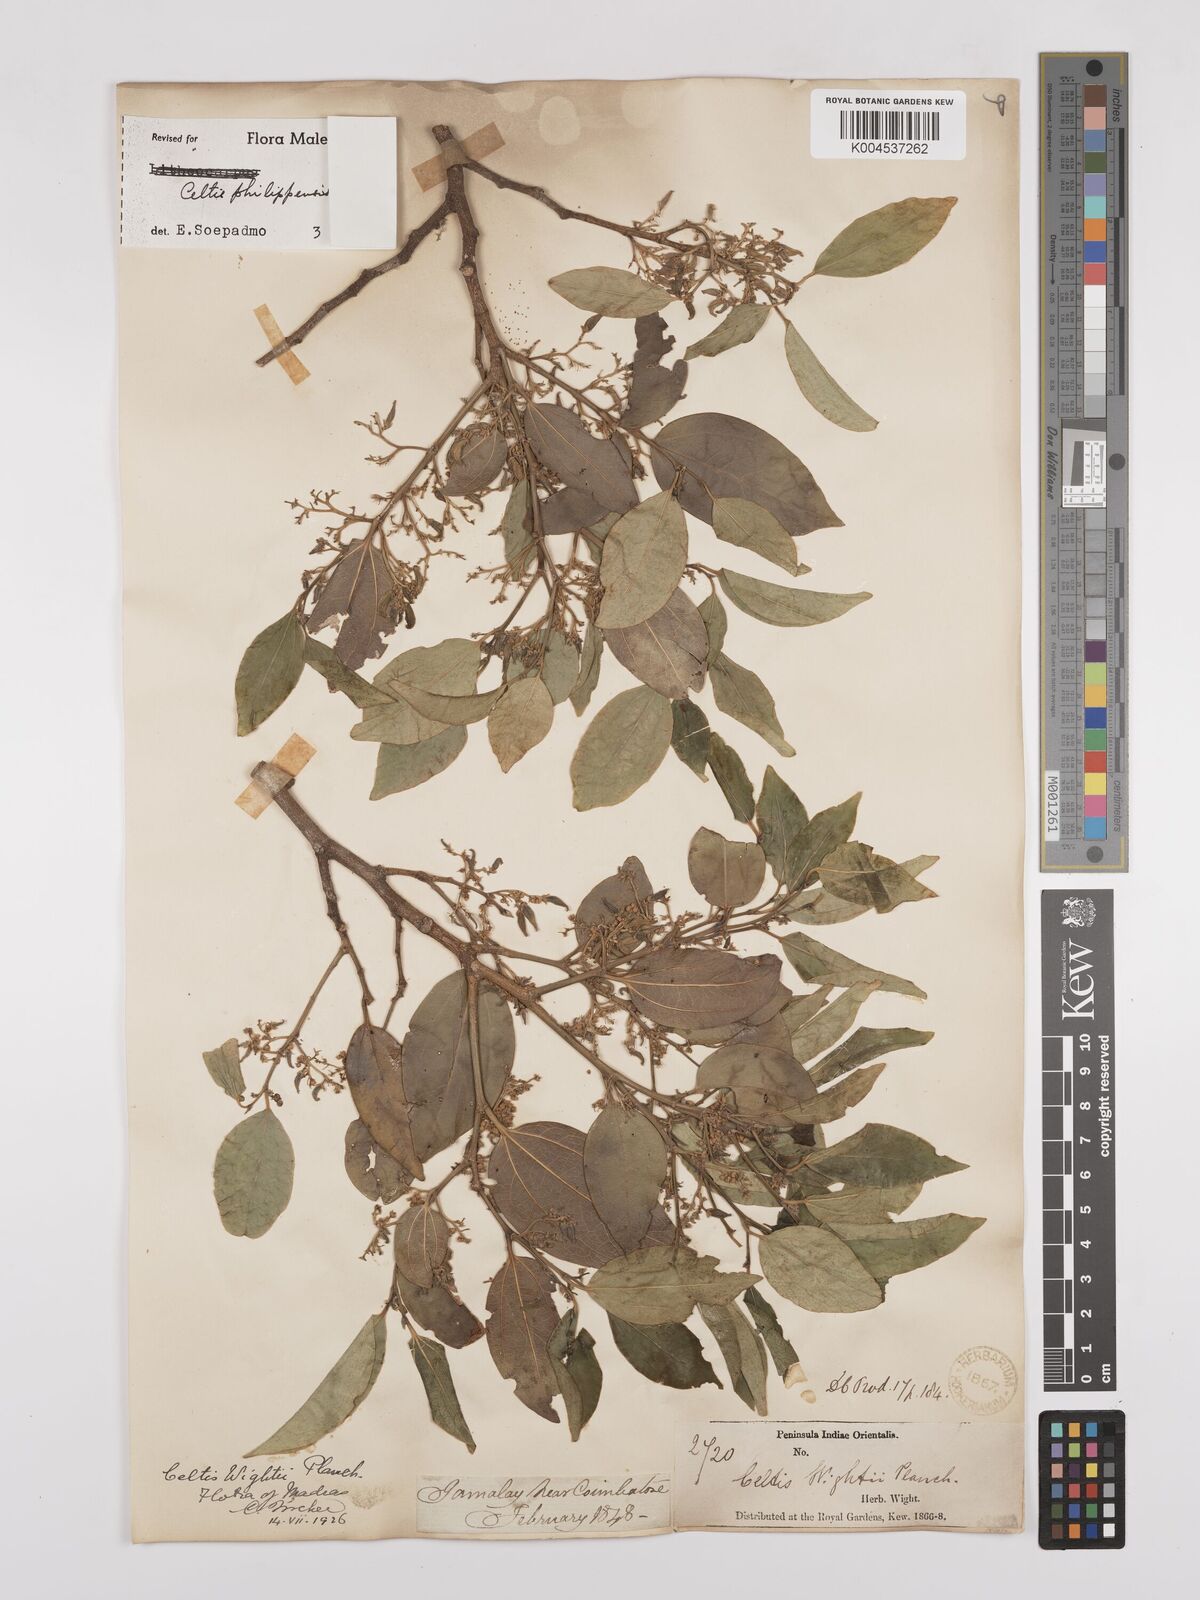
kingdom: Plantae
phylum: Tracheophyta
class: Magnoliopsida
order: Rosales
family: Cannabaceae
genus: Celtis
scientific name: Celtis philippensis
